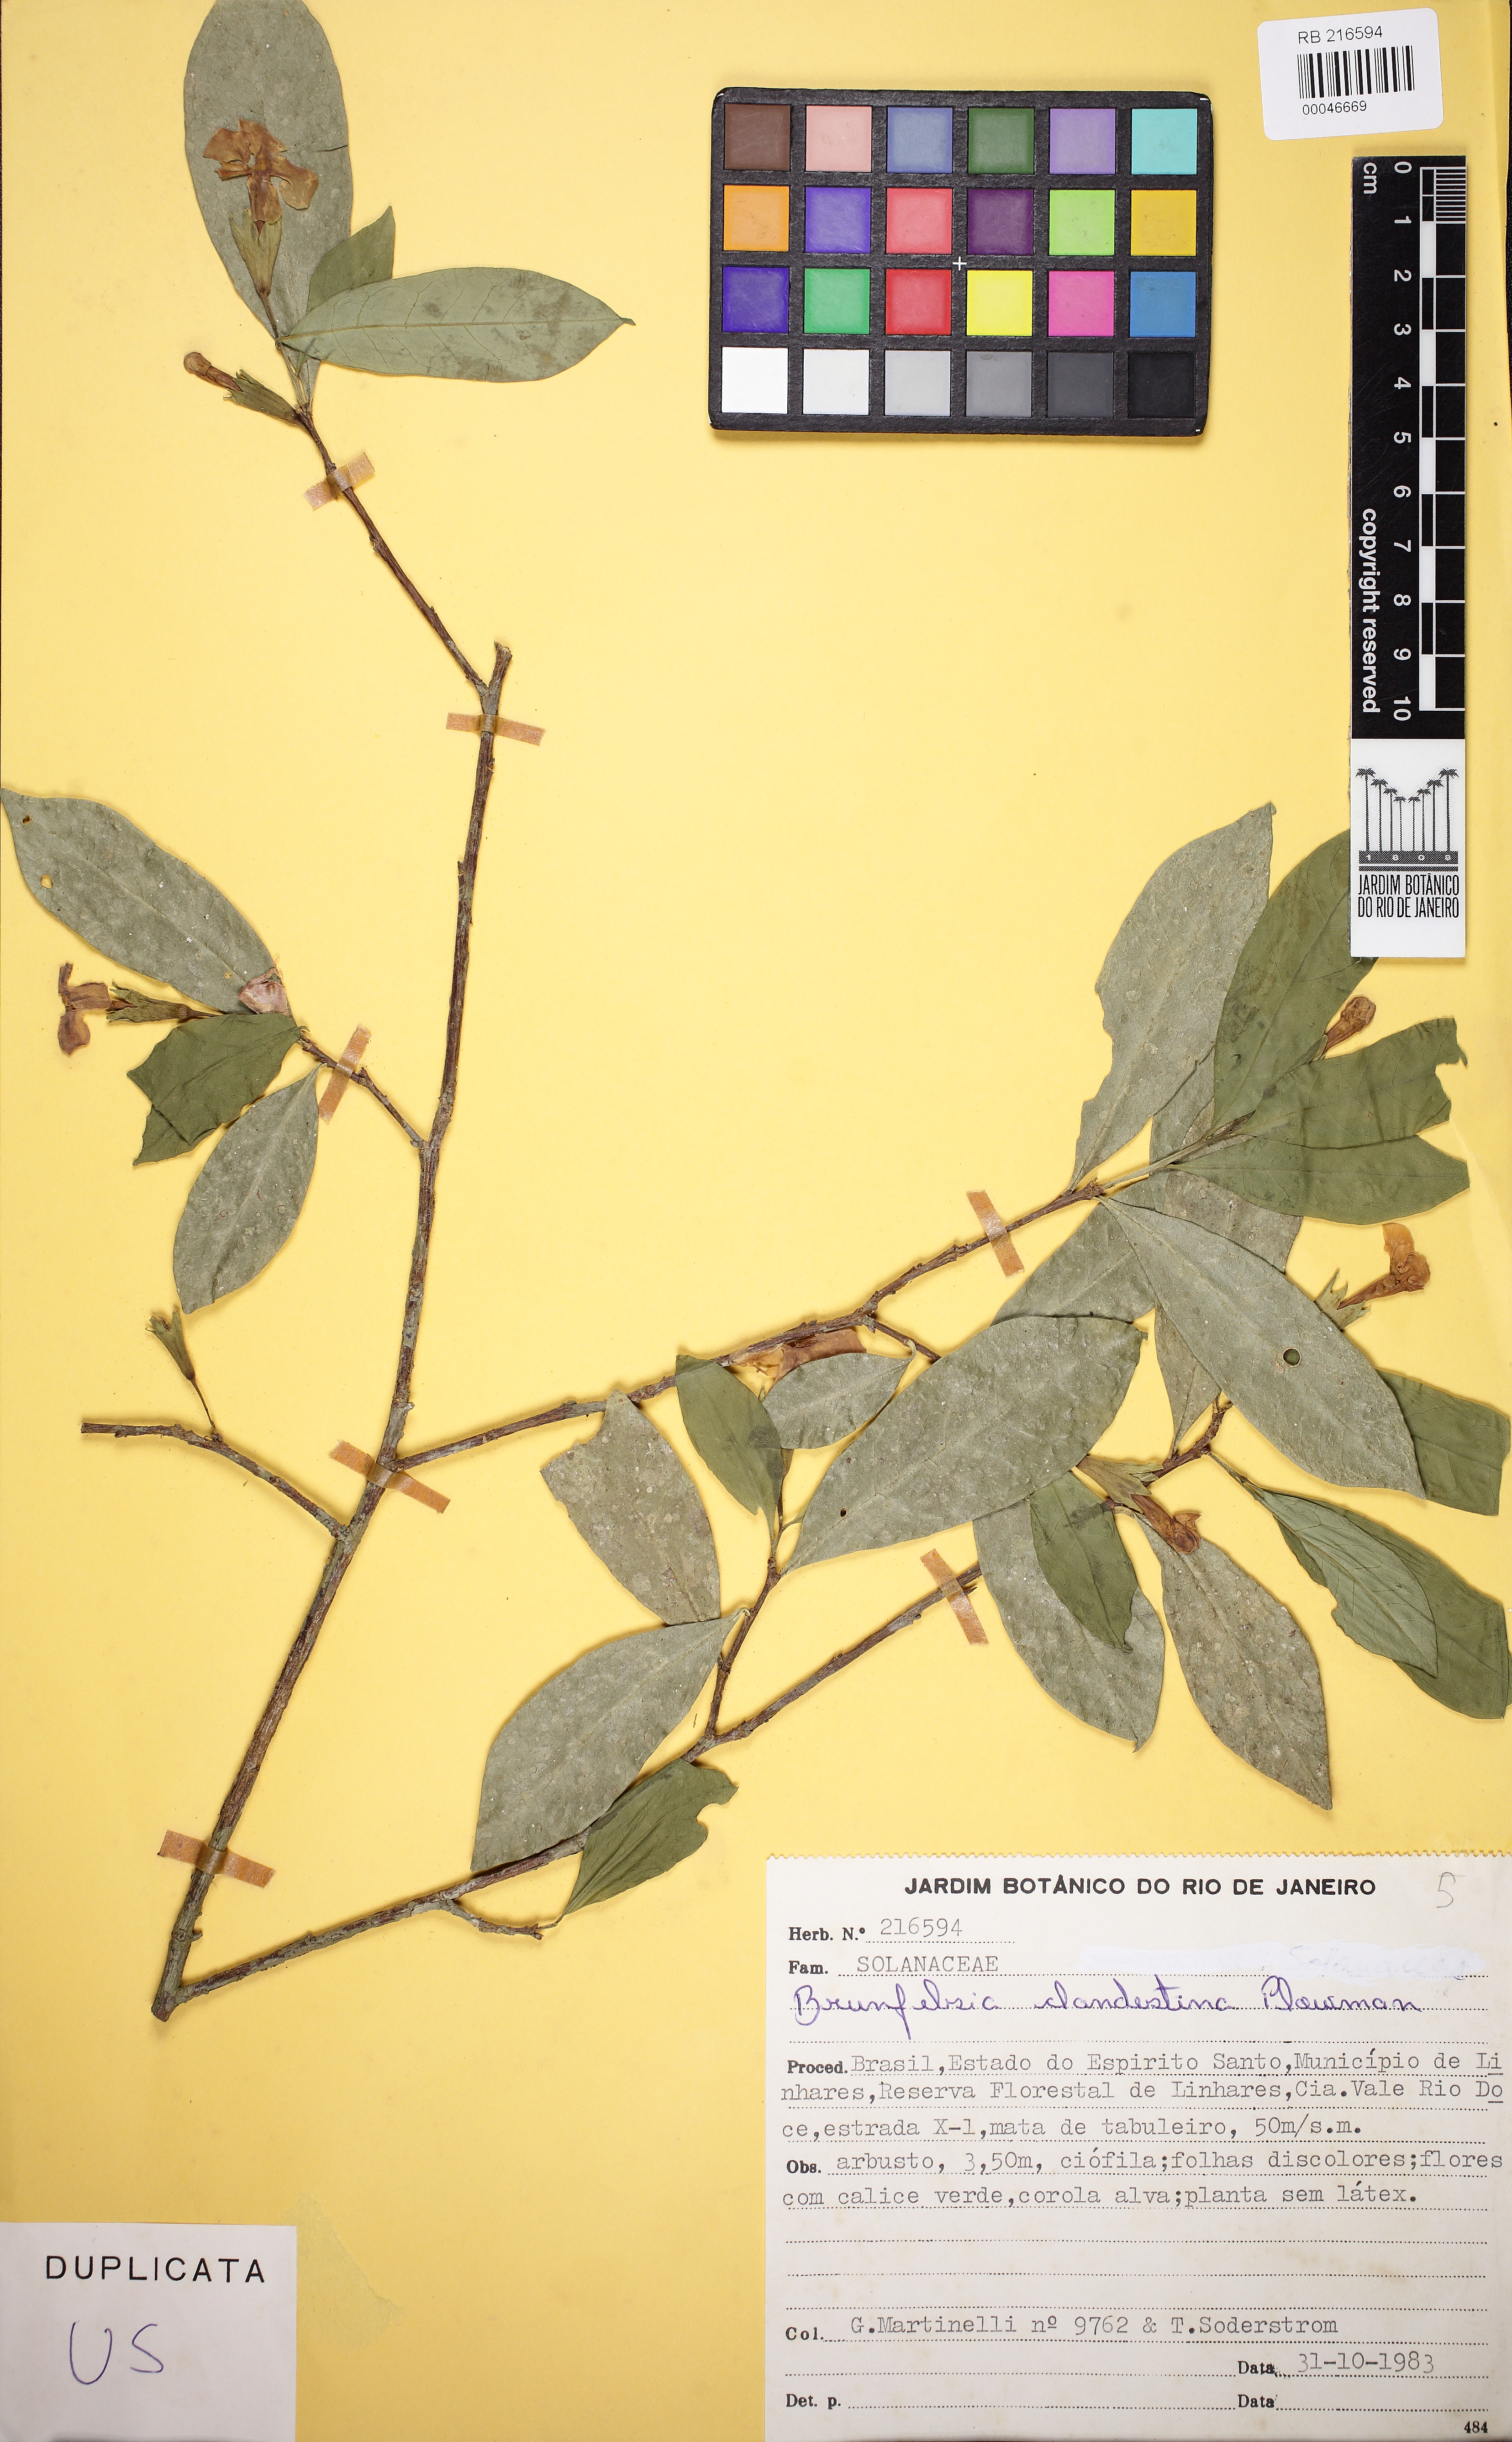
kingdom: Plantae
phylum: Tracheophyta
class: Magnoliopsida
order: Solanales
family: Solanaceae
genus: Brunfelsia
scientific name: Brunfelsia clandestina
